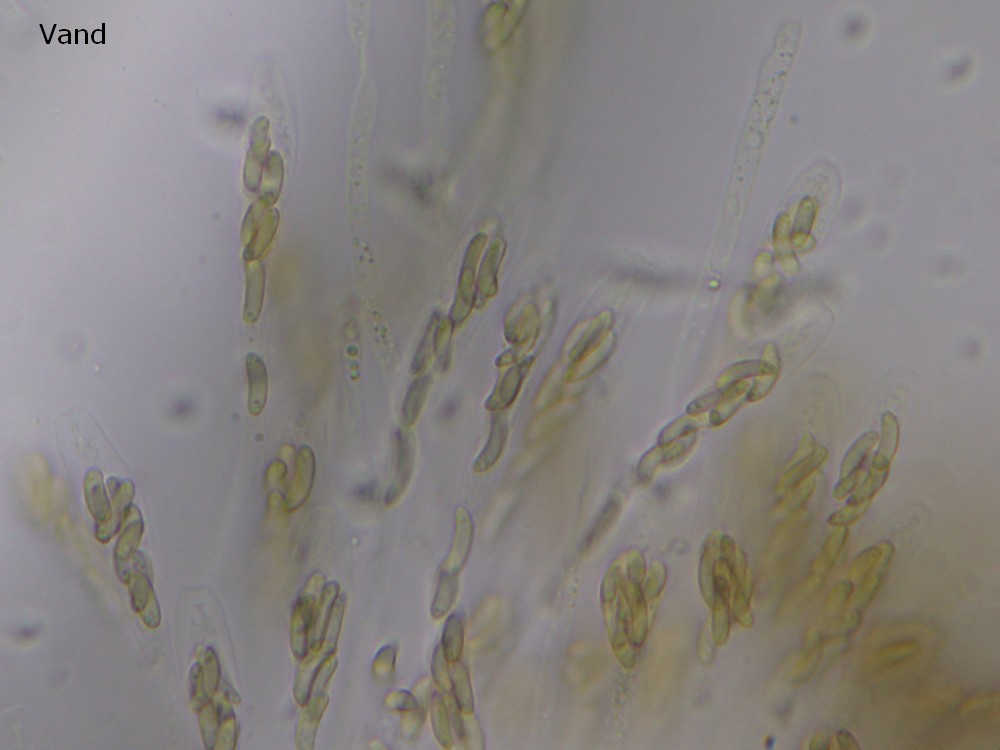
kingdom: Fungi
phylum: Ascomycota
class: Sordariomycetes
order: Xylariales
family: Diatrypaceae
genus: Eutypa
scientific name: Eutypa flavovirens
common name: grønkødet kulskorpe
